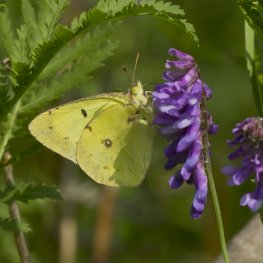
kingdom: Animalia
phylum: Arthropoda
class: Insecta
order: Lepidoptera
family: Pieridae
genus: Colias
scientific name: Colias philodice
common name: Clouded Sulphur
